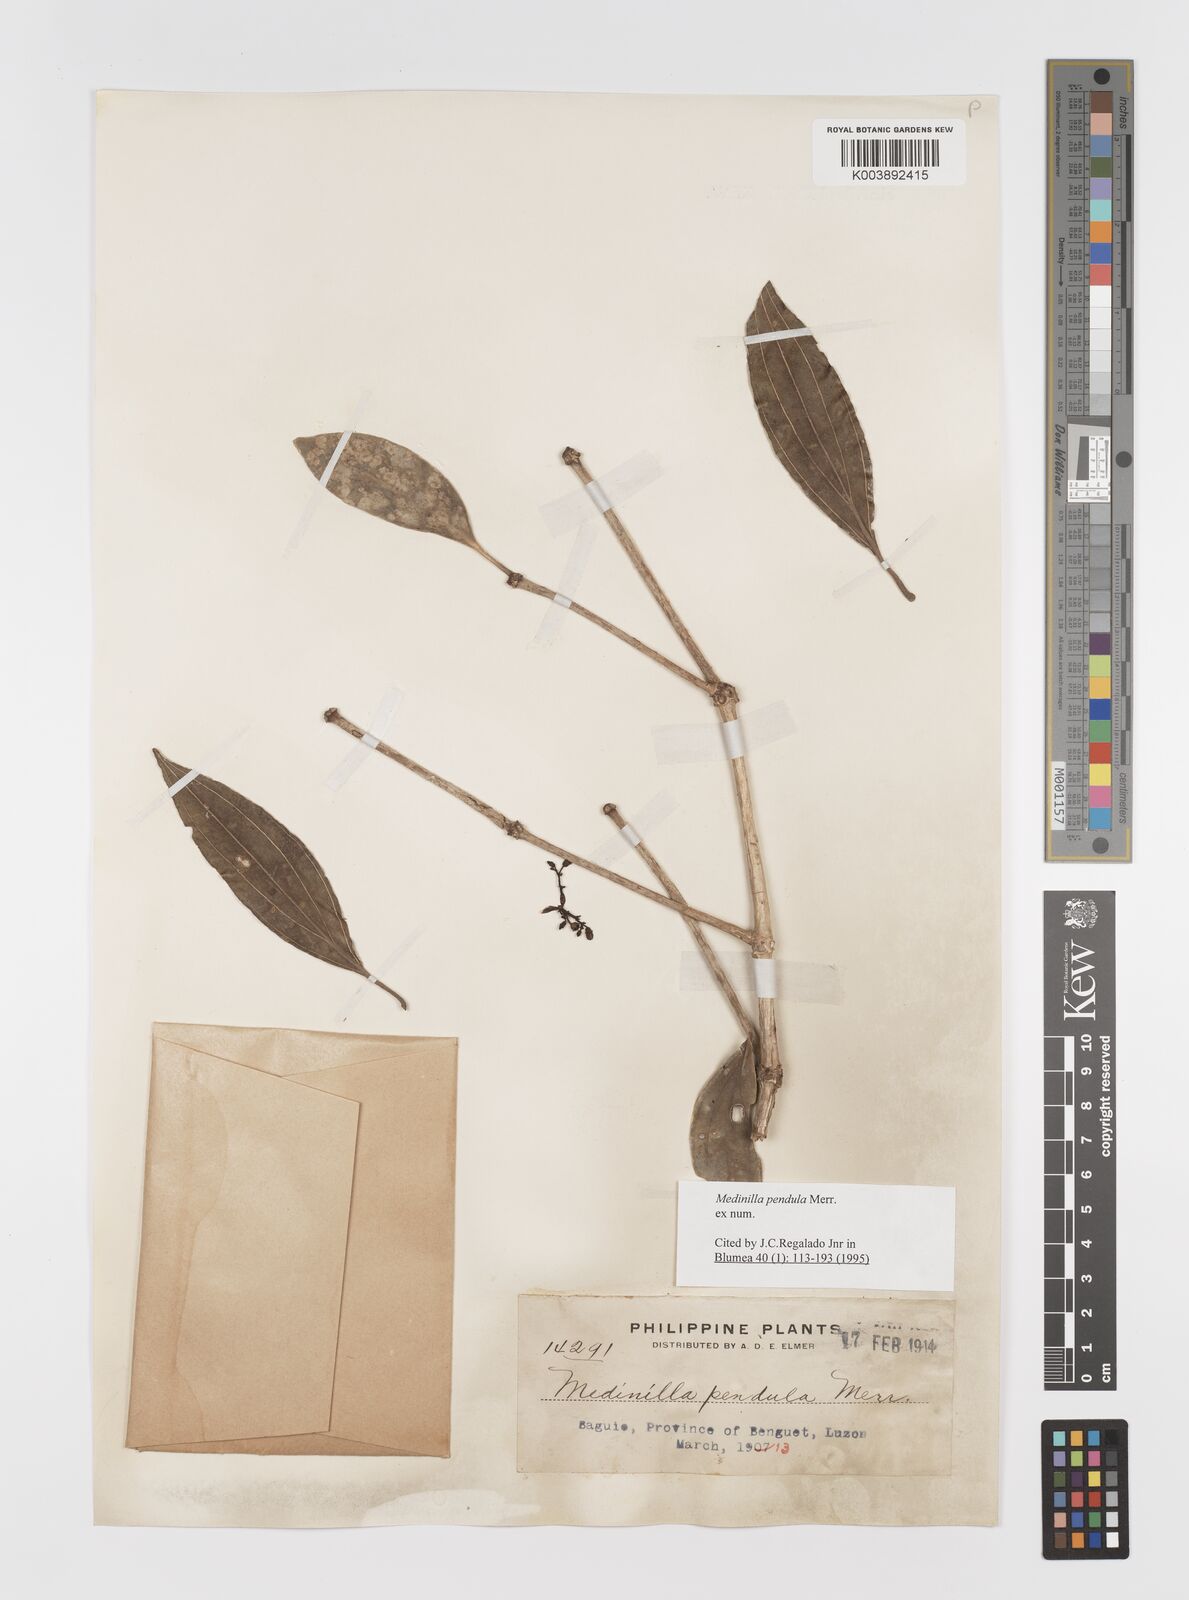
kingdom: Plantae
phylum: Tracheophyta
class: Magnoliopsida
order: Myrtales
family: Melastomataceae
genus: Medinilla
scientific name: Medinilla pendula
